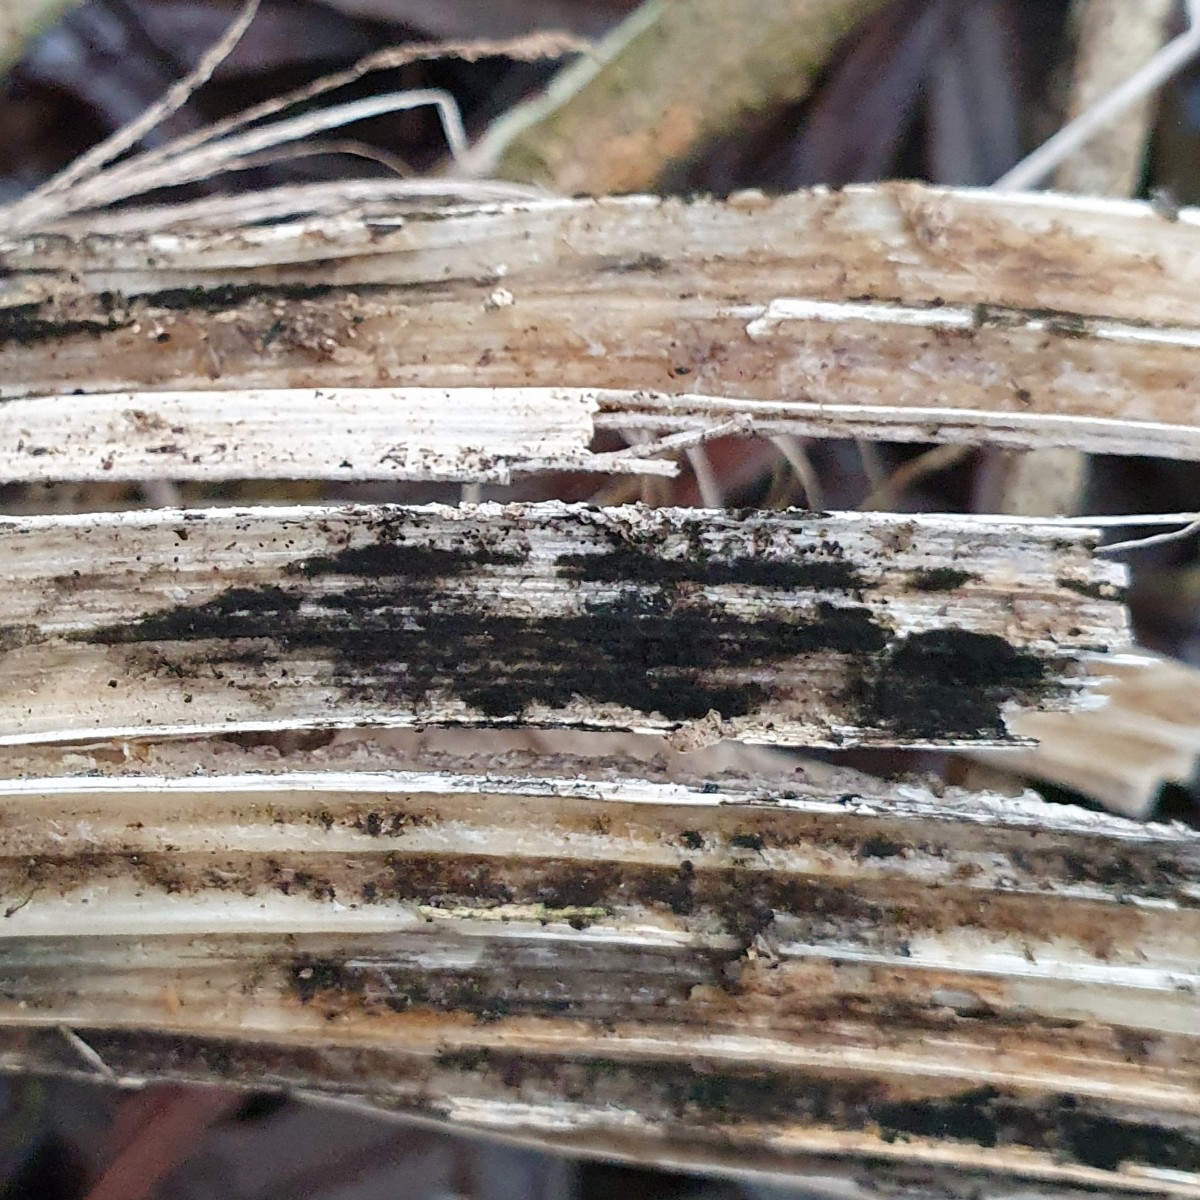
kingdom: Fungi
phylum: Ascomycota
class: Dothideomycetes
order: Pleosporales
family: Torulaceae
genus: Rutola
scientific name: Rutola graminis
